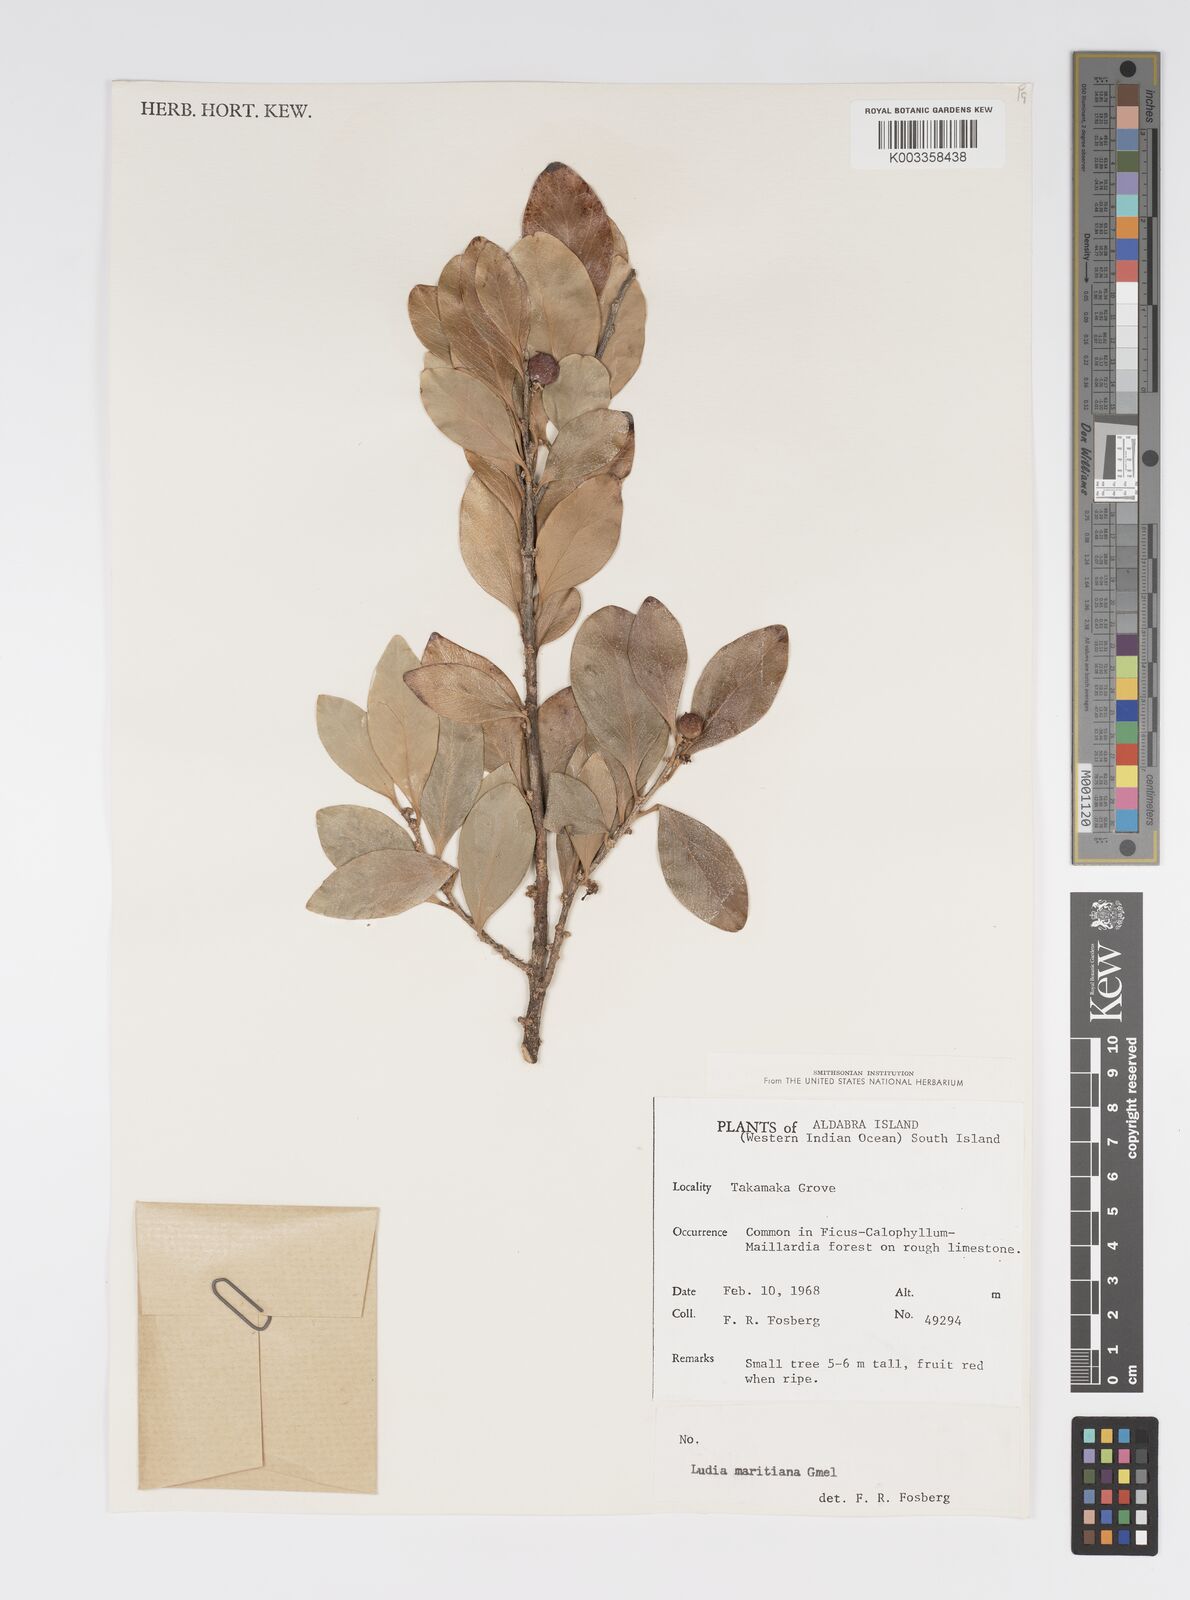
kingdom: Plantae
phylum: Tracheophyta
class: Magnoliopsida
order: Malpighiales
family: Salicaceae
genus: Ludia
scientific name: Ludia mauritiana
